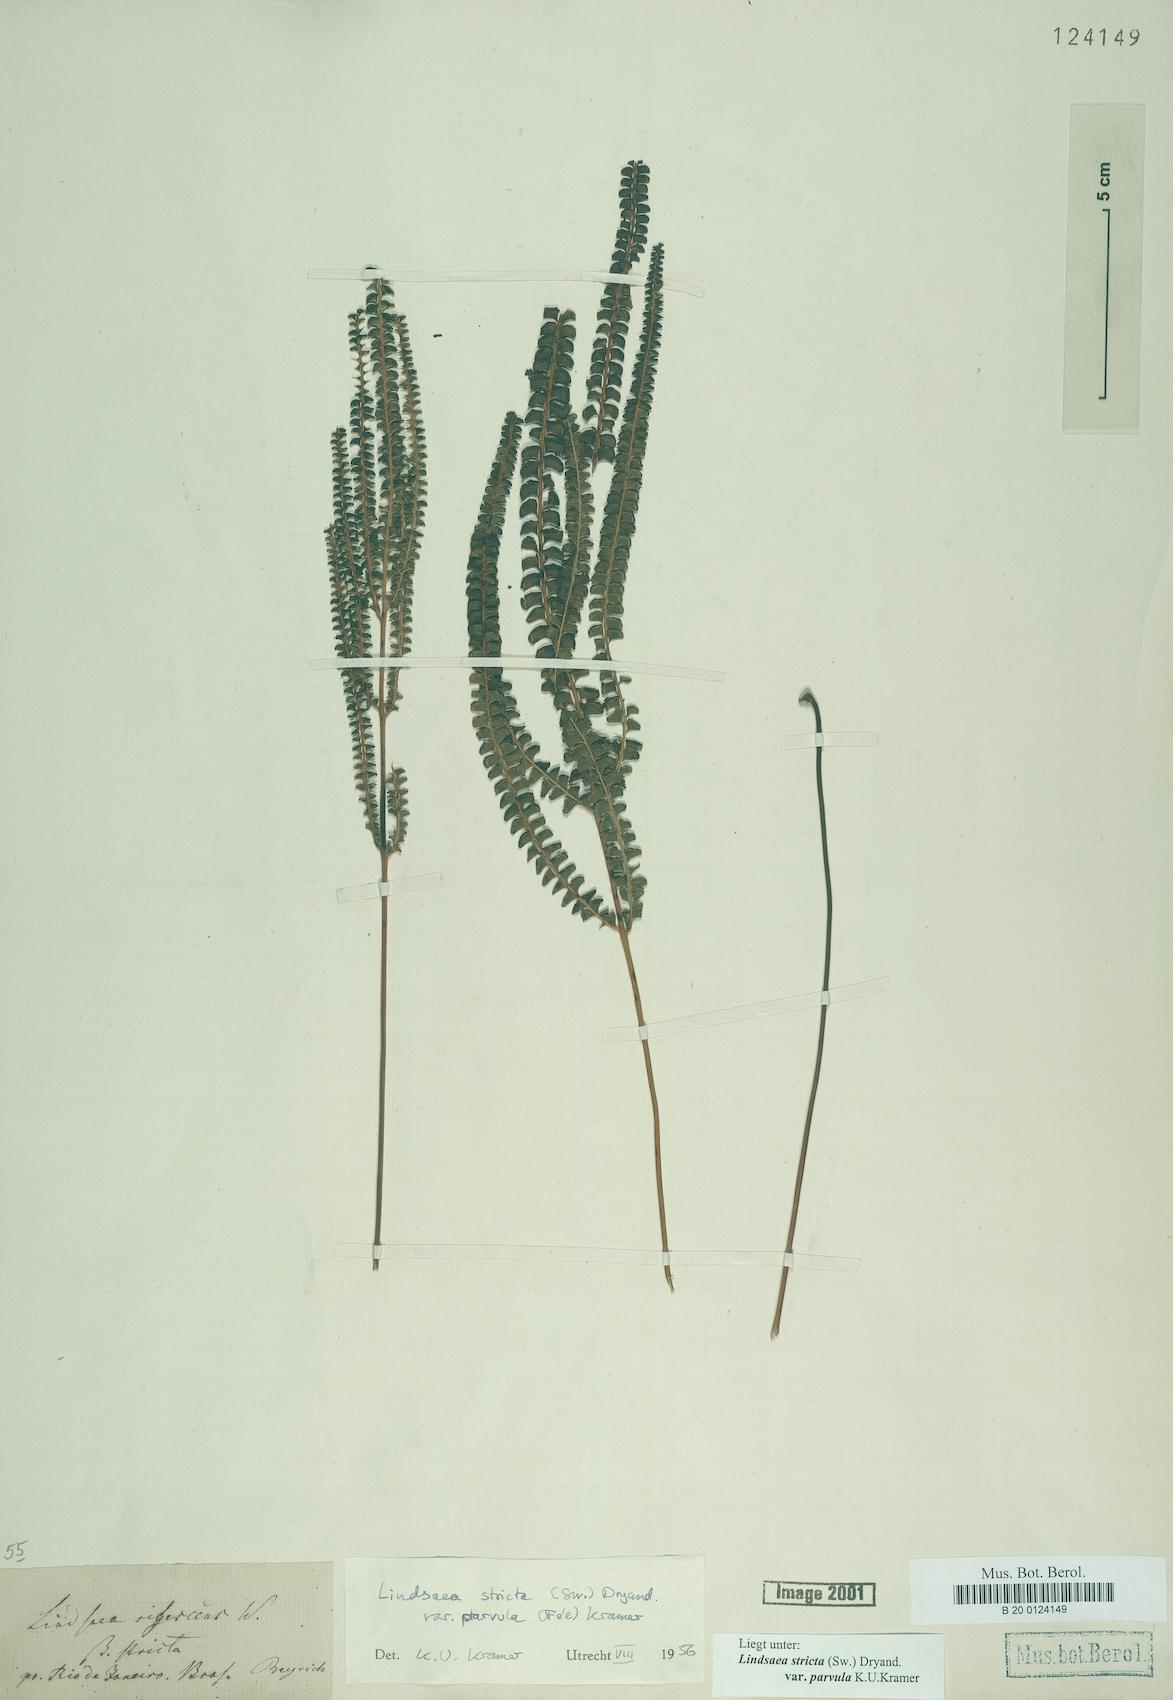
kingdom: Plantae
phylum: Tracheophyta
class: Polypodiopsida
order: Polypodiales
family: Lindsaeaceae
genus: Lindsaea
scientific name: Lindsaea stricta
